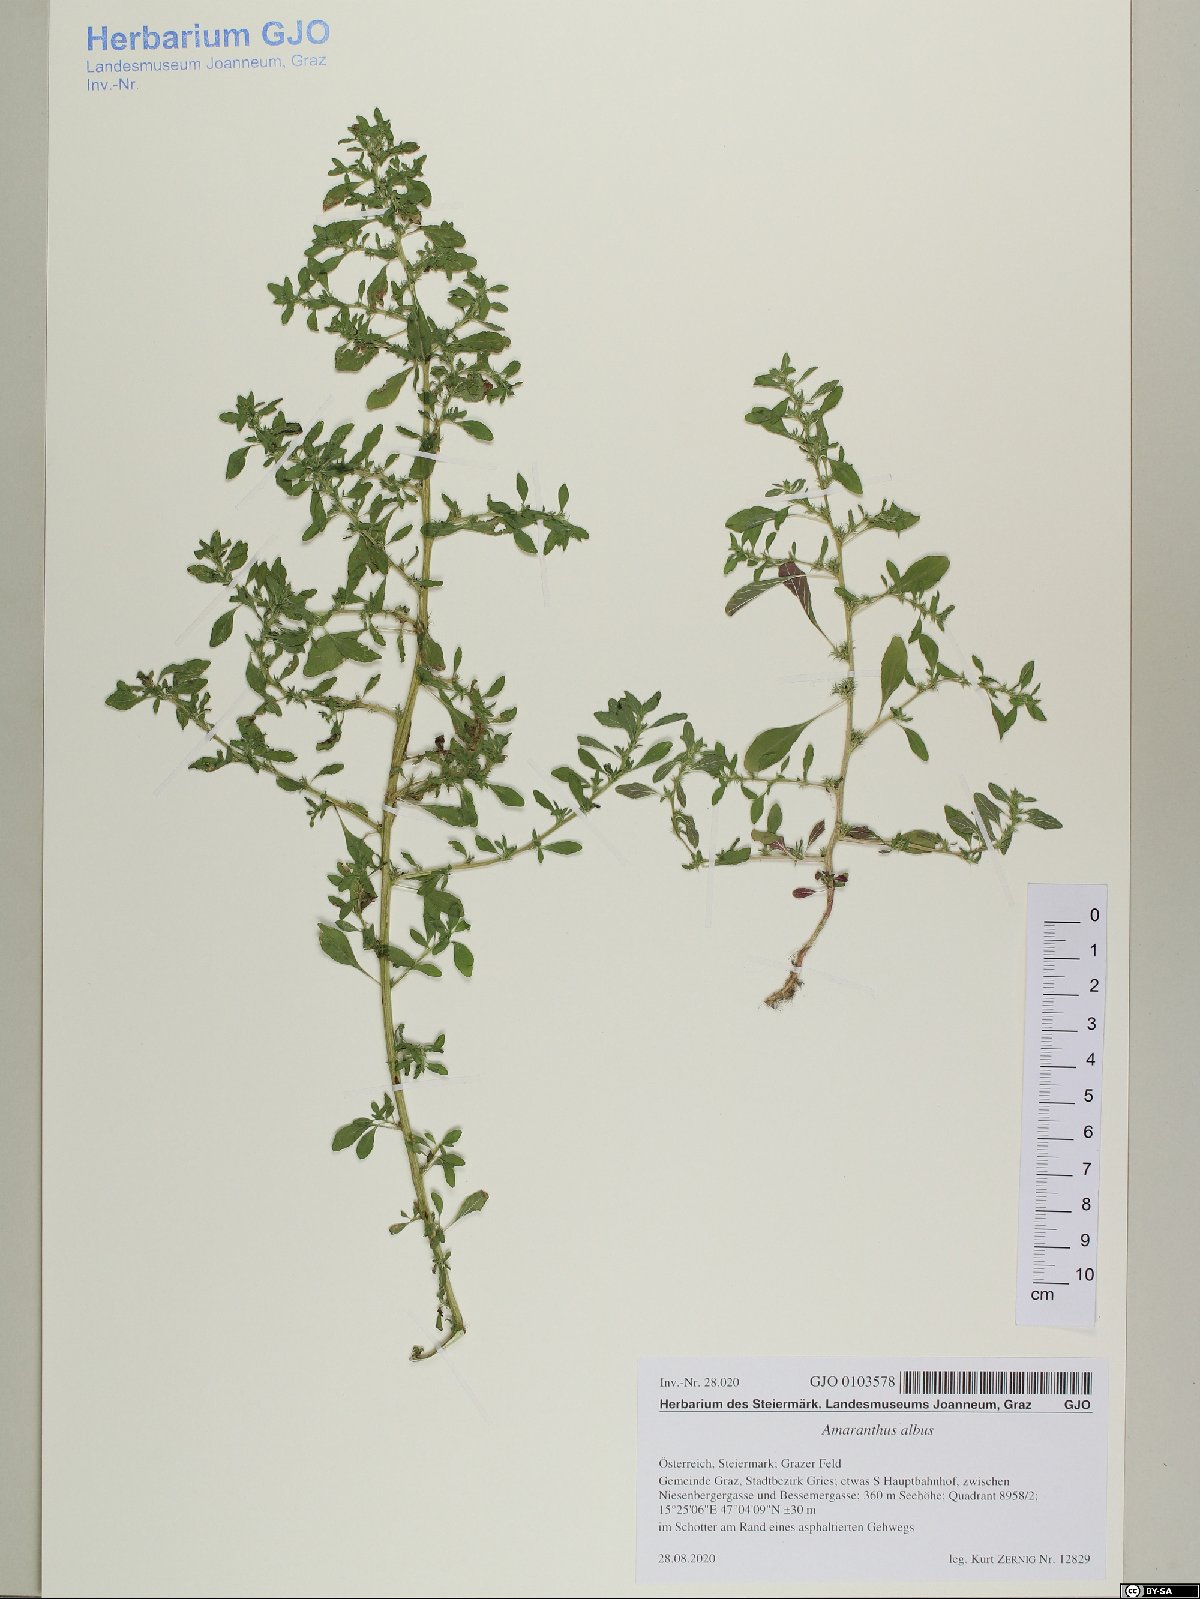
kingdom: Plantae
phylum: Tracheophyta
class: Magnoliopsida
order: Caryophyllales
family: Amaranthaceae
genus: Amaranthus
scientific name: Amaranthus albus
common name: White pigweed
